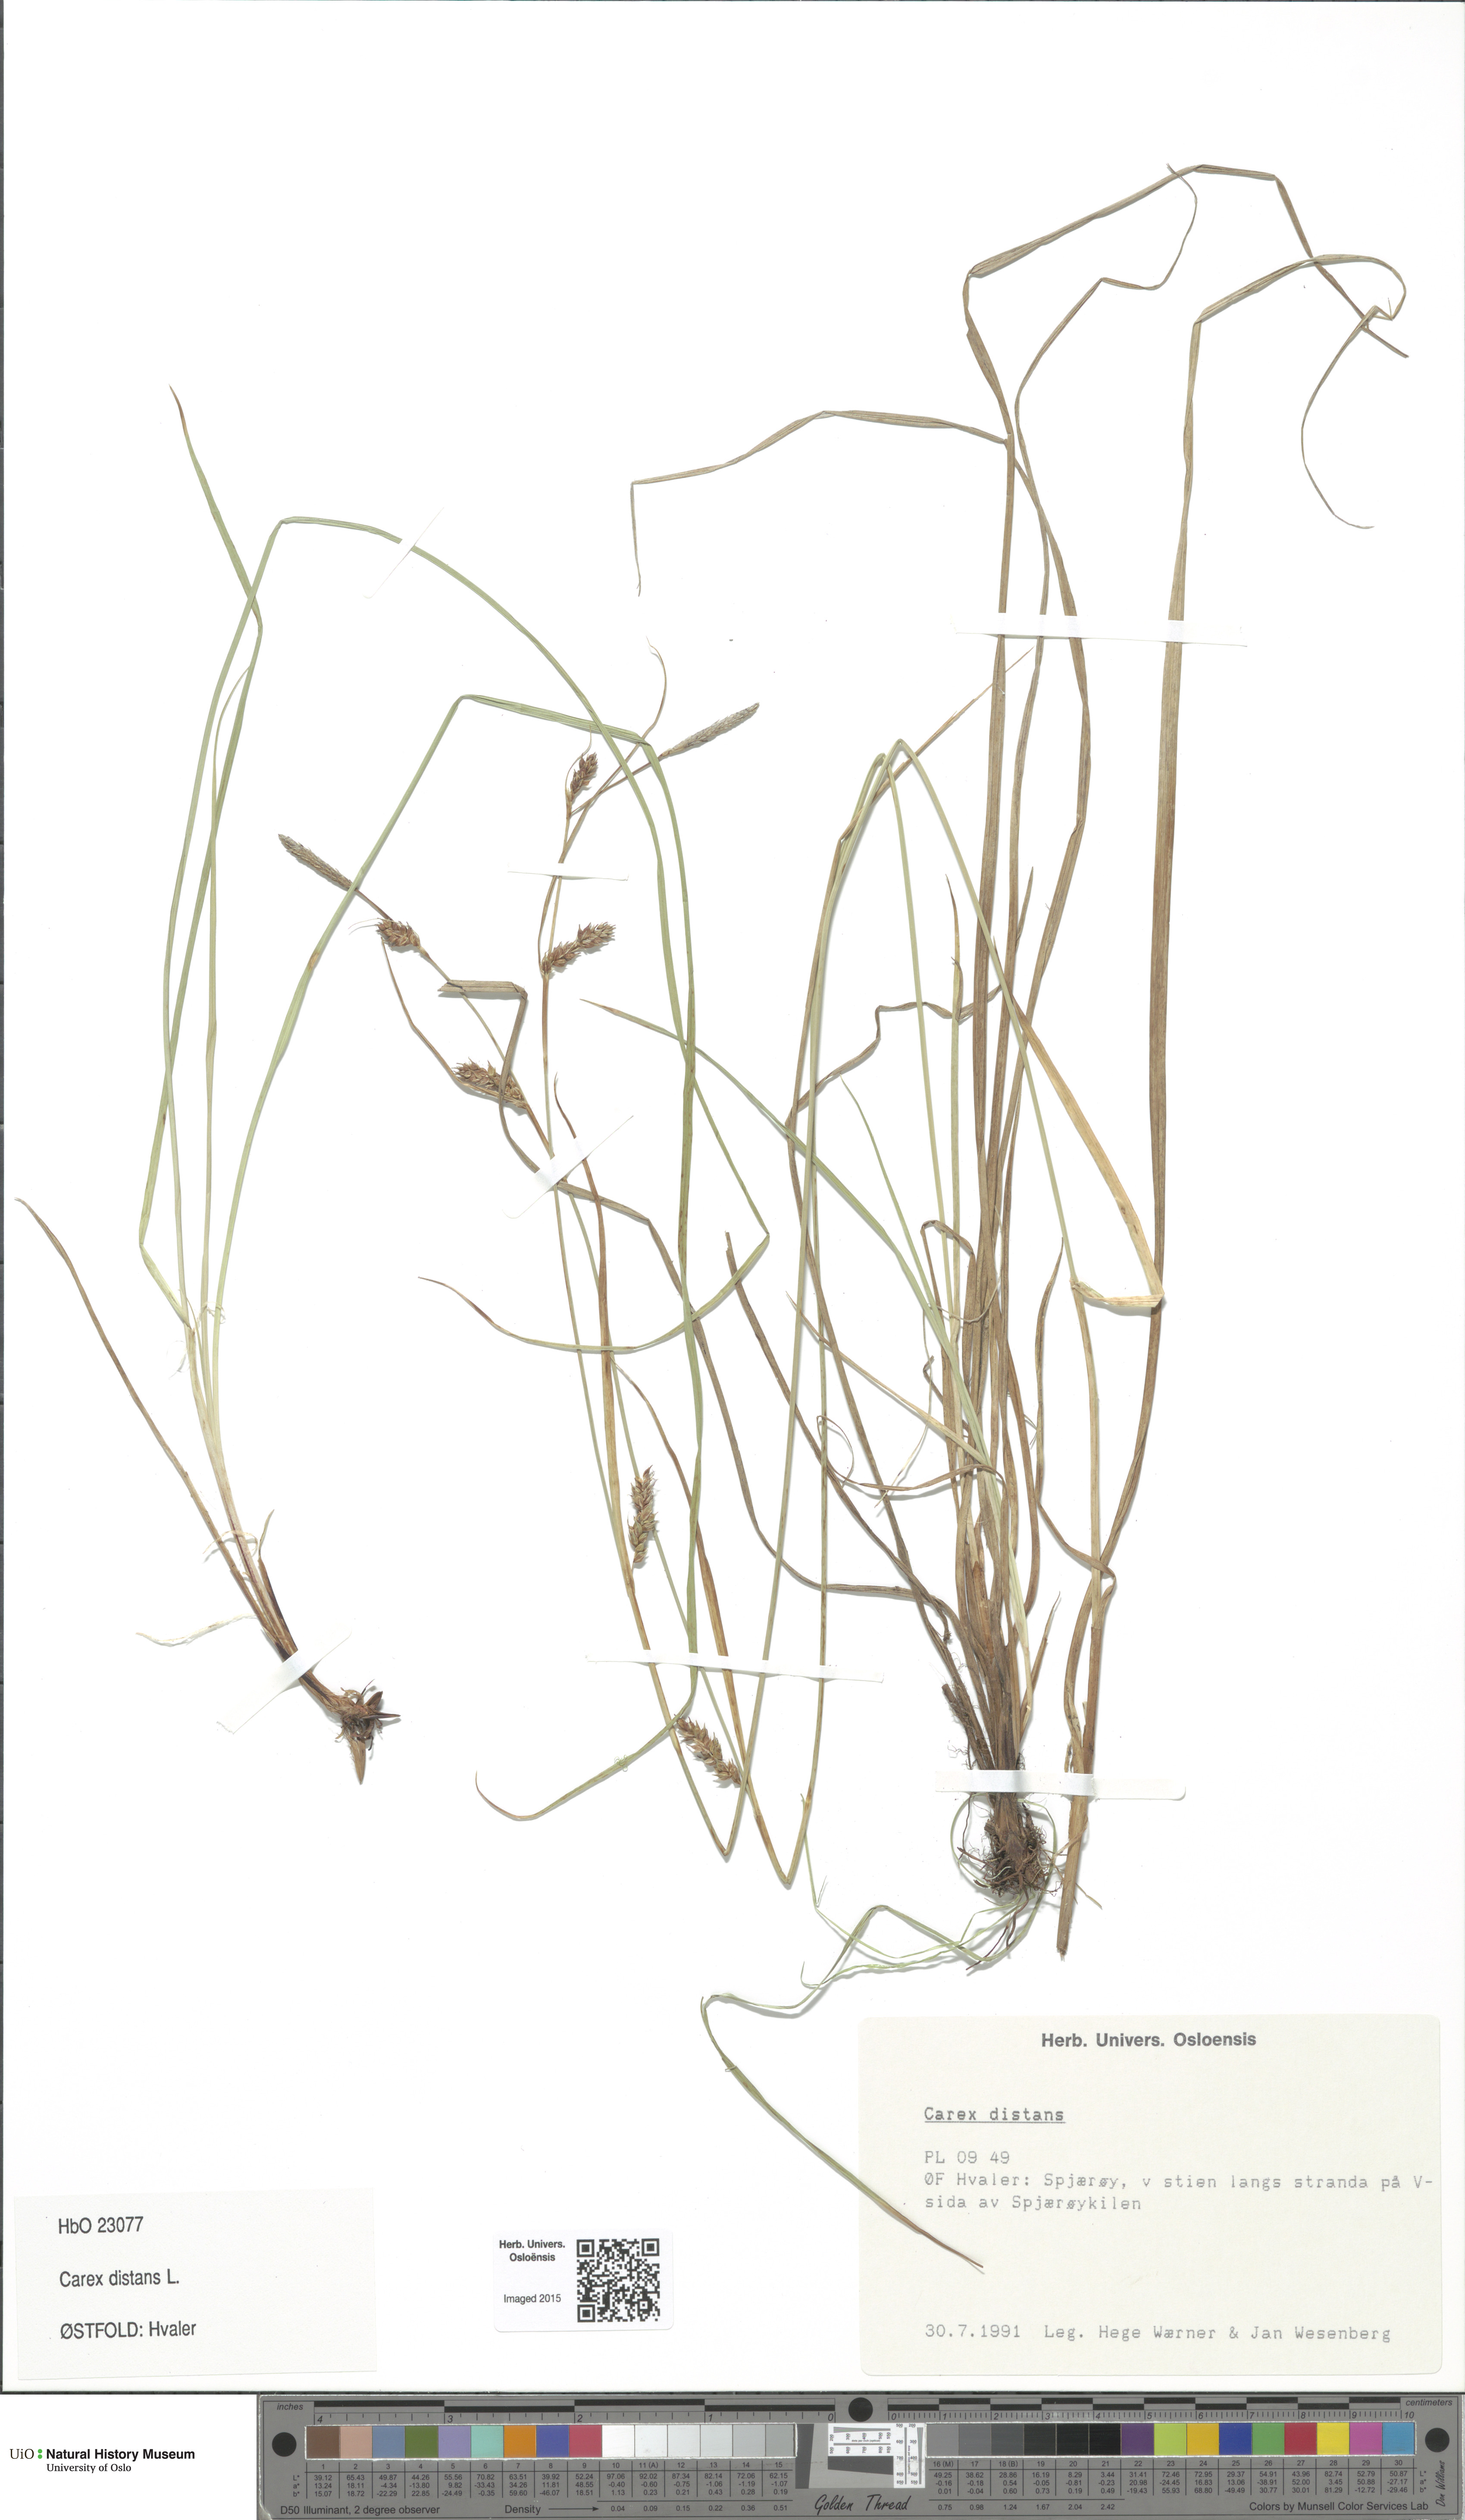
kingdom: Plantae
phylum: Tracheophyta
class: Liliopsida
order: Poales
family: Cyperaceae
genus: Carex
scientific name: Carex distans
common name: Distant sedge
